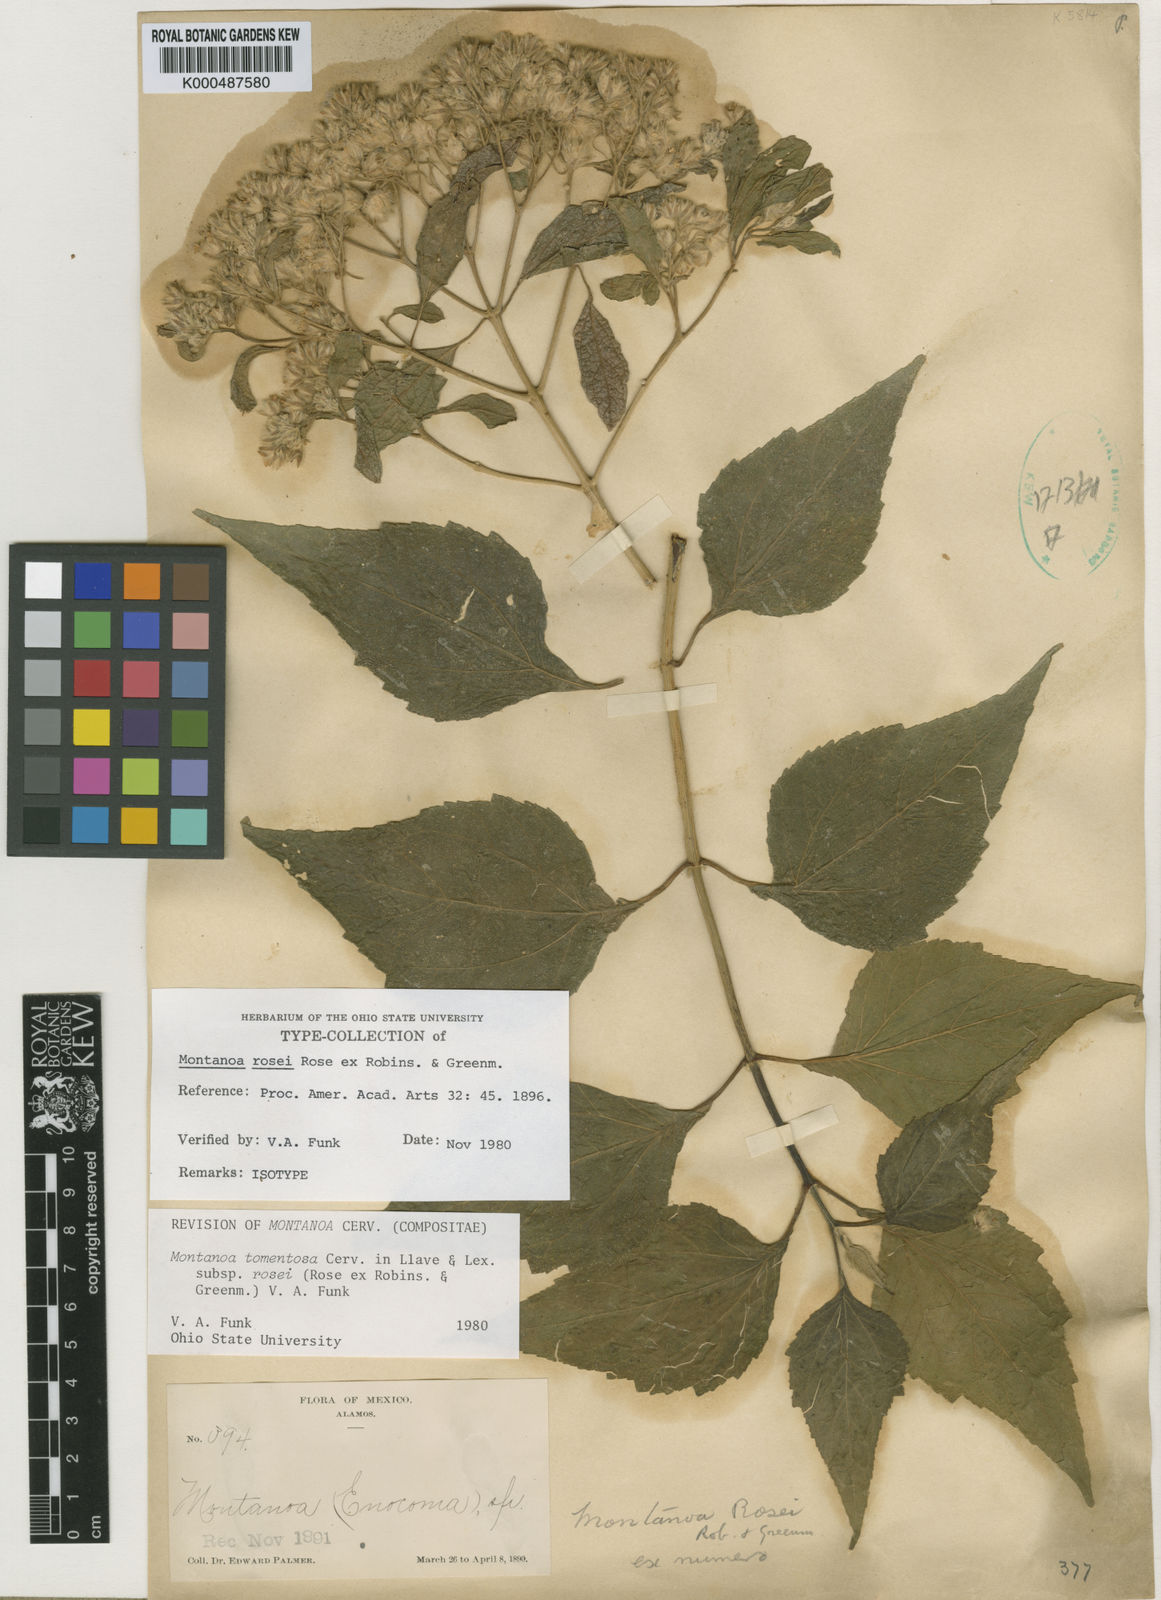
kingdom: Plantae
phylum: Tracheophyta
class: Magnoliopsida
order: Asterales
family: Asteraceae
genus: Montanoa
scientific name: Montanoa tomentosa
